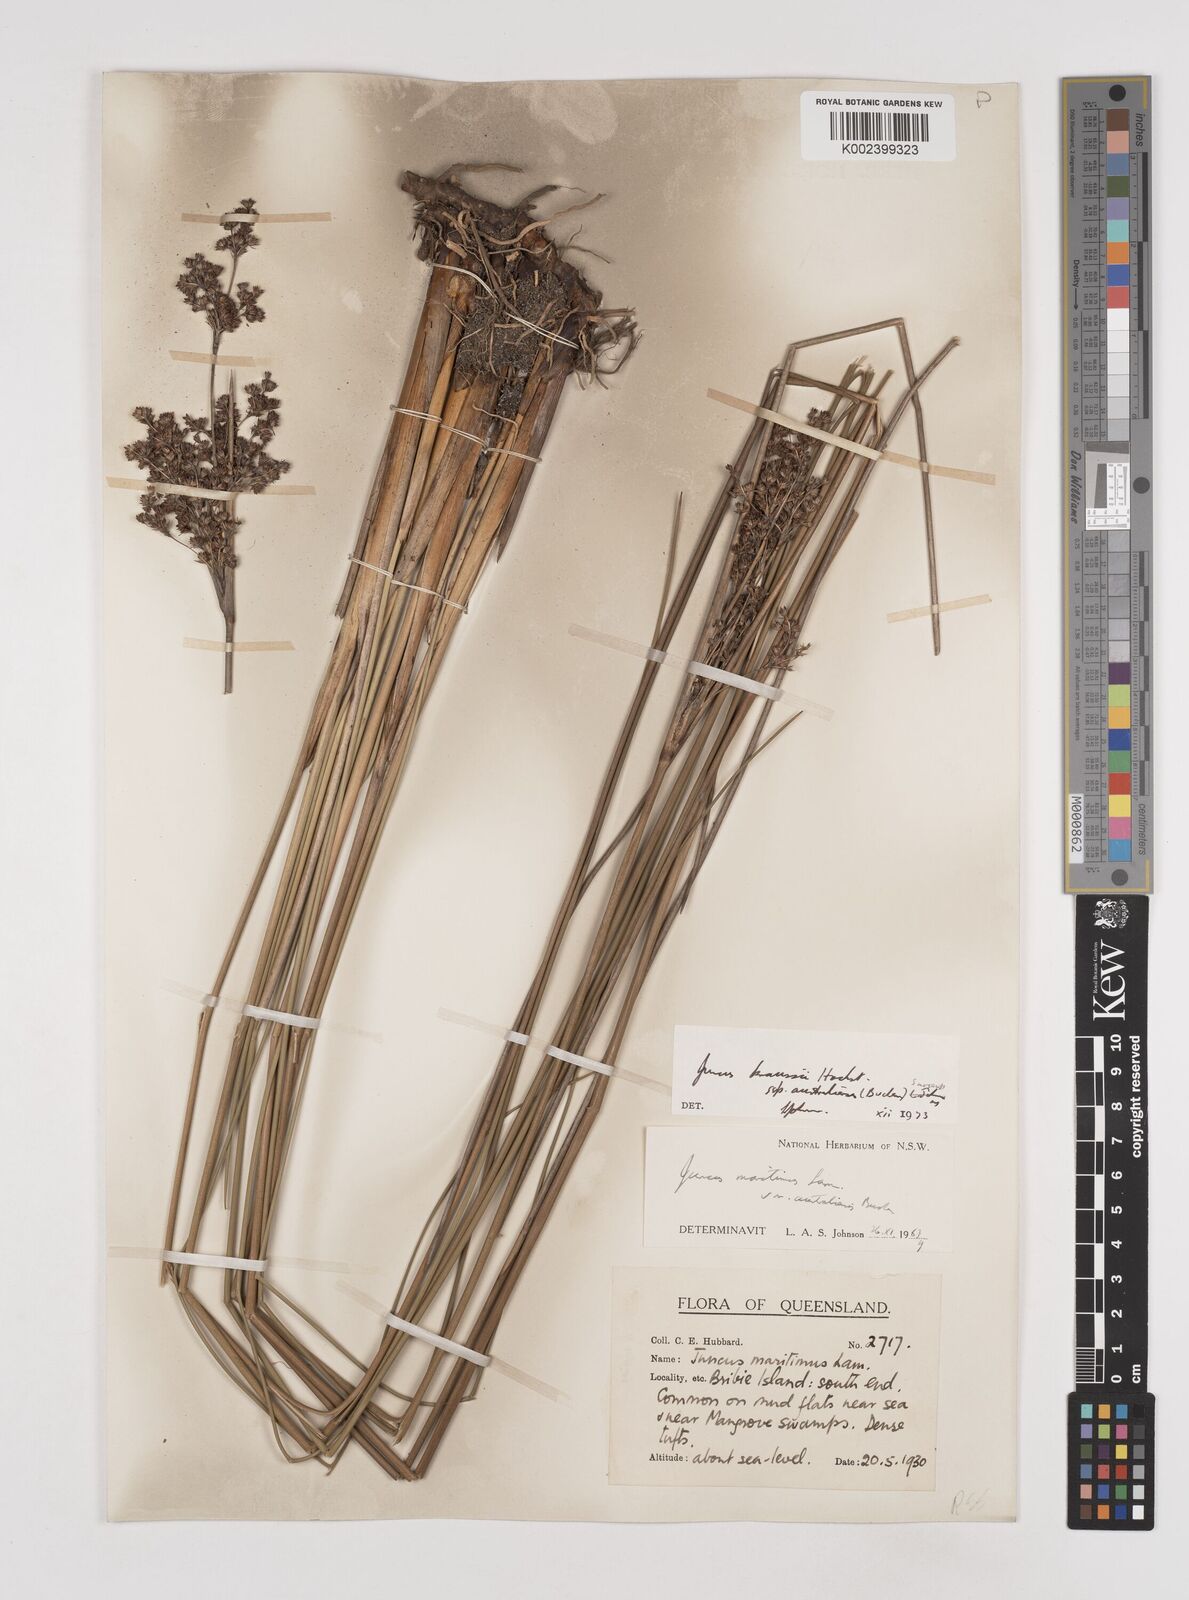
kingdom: Plantae
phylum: Tracheophyta
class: Liliopsida
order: Poales
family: Juncaceae
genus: Juncus
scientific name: Juncus kraussii
